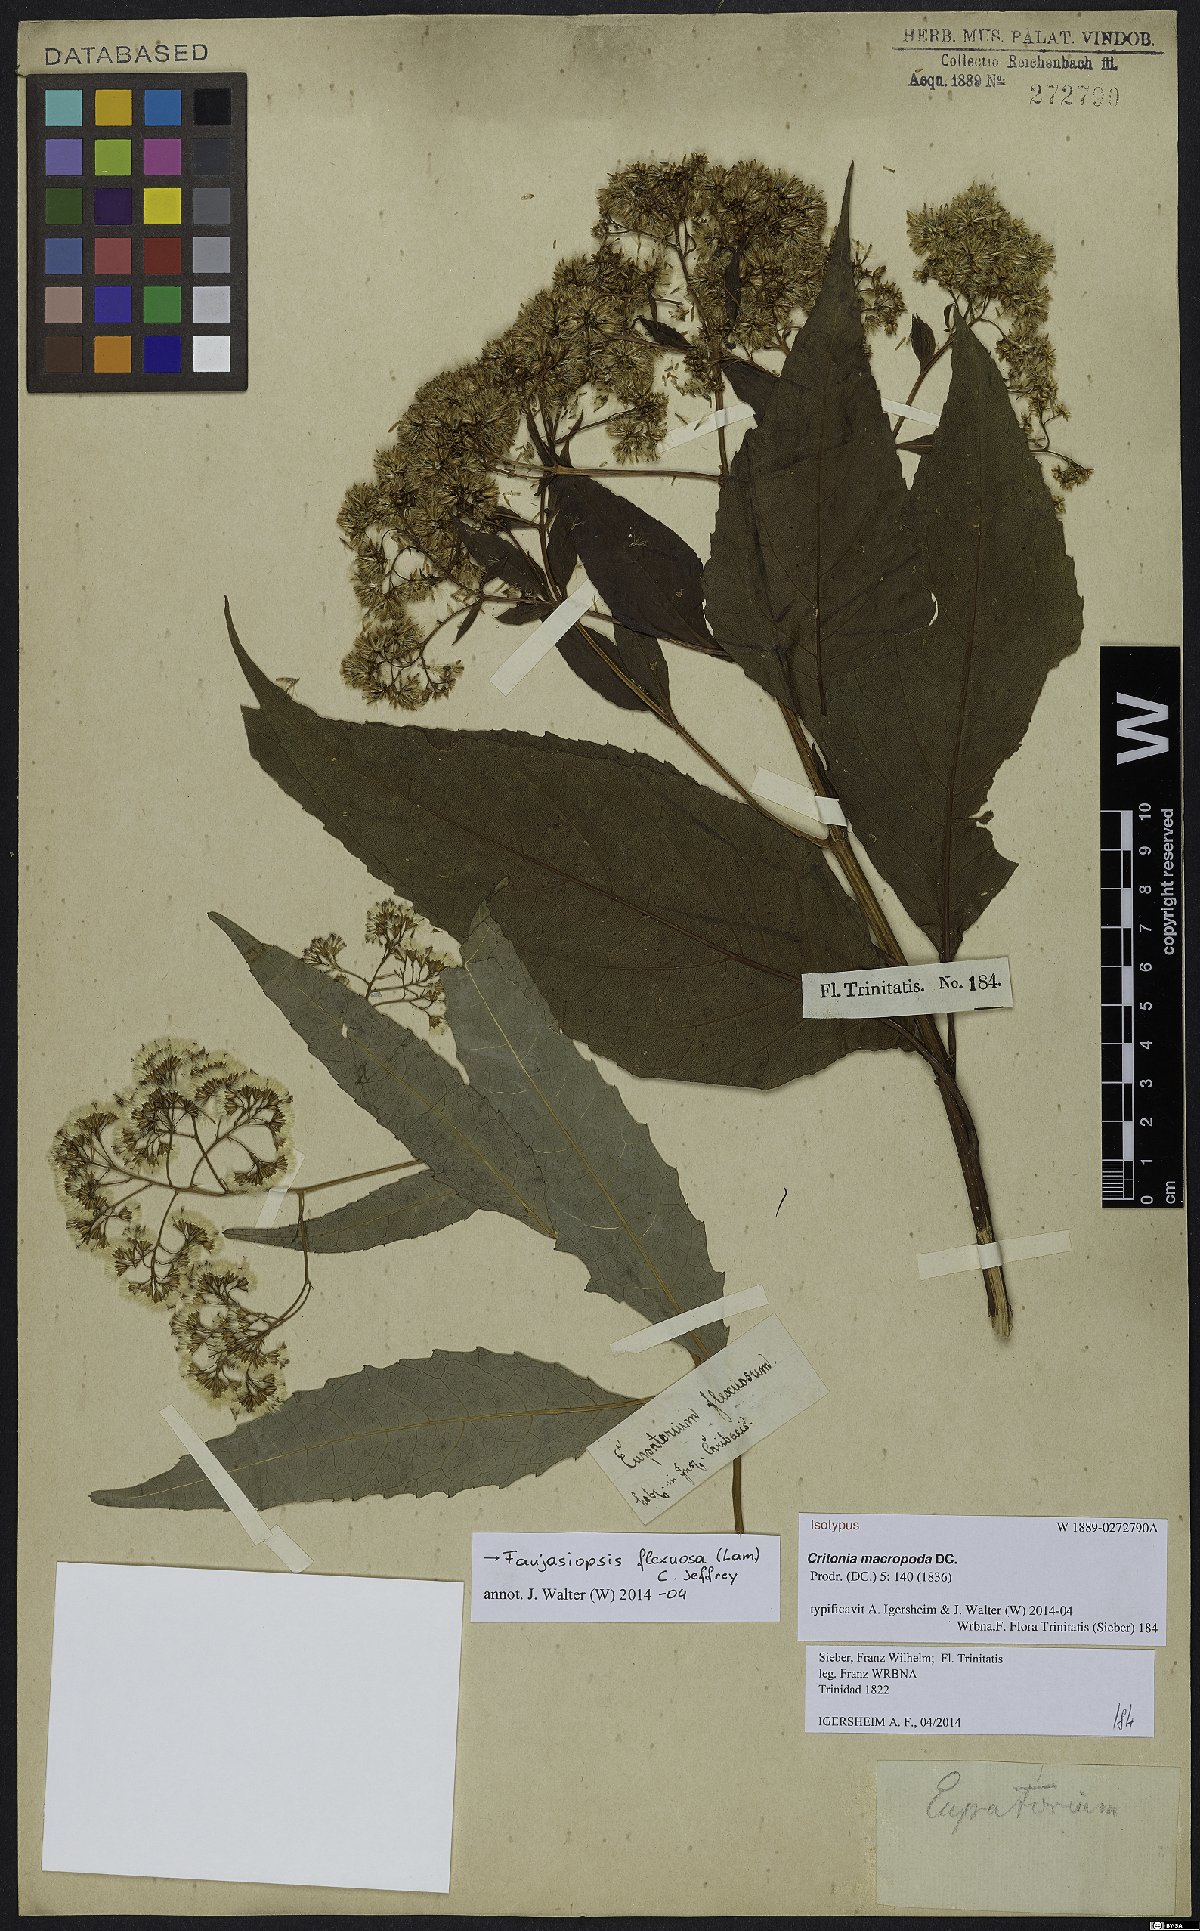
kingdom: Plantae
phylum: Tracheophyta
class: Magnoliopsida
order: Asterales
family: Asteraceae
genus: Faujasiopsis
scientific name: Faujasiopsis flexuosa
